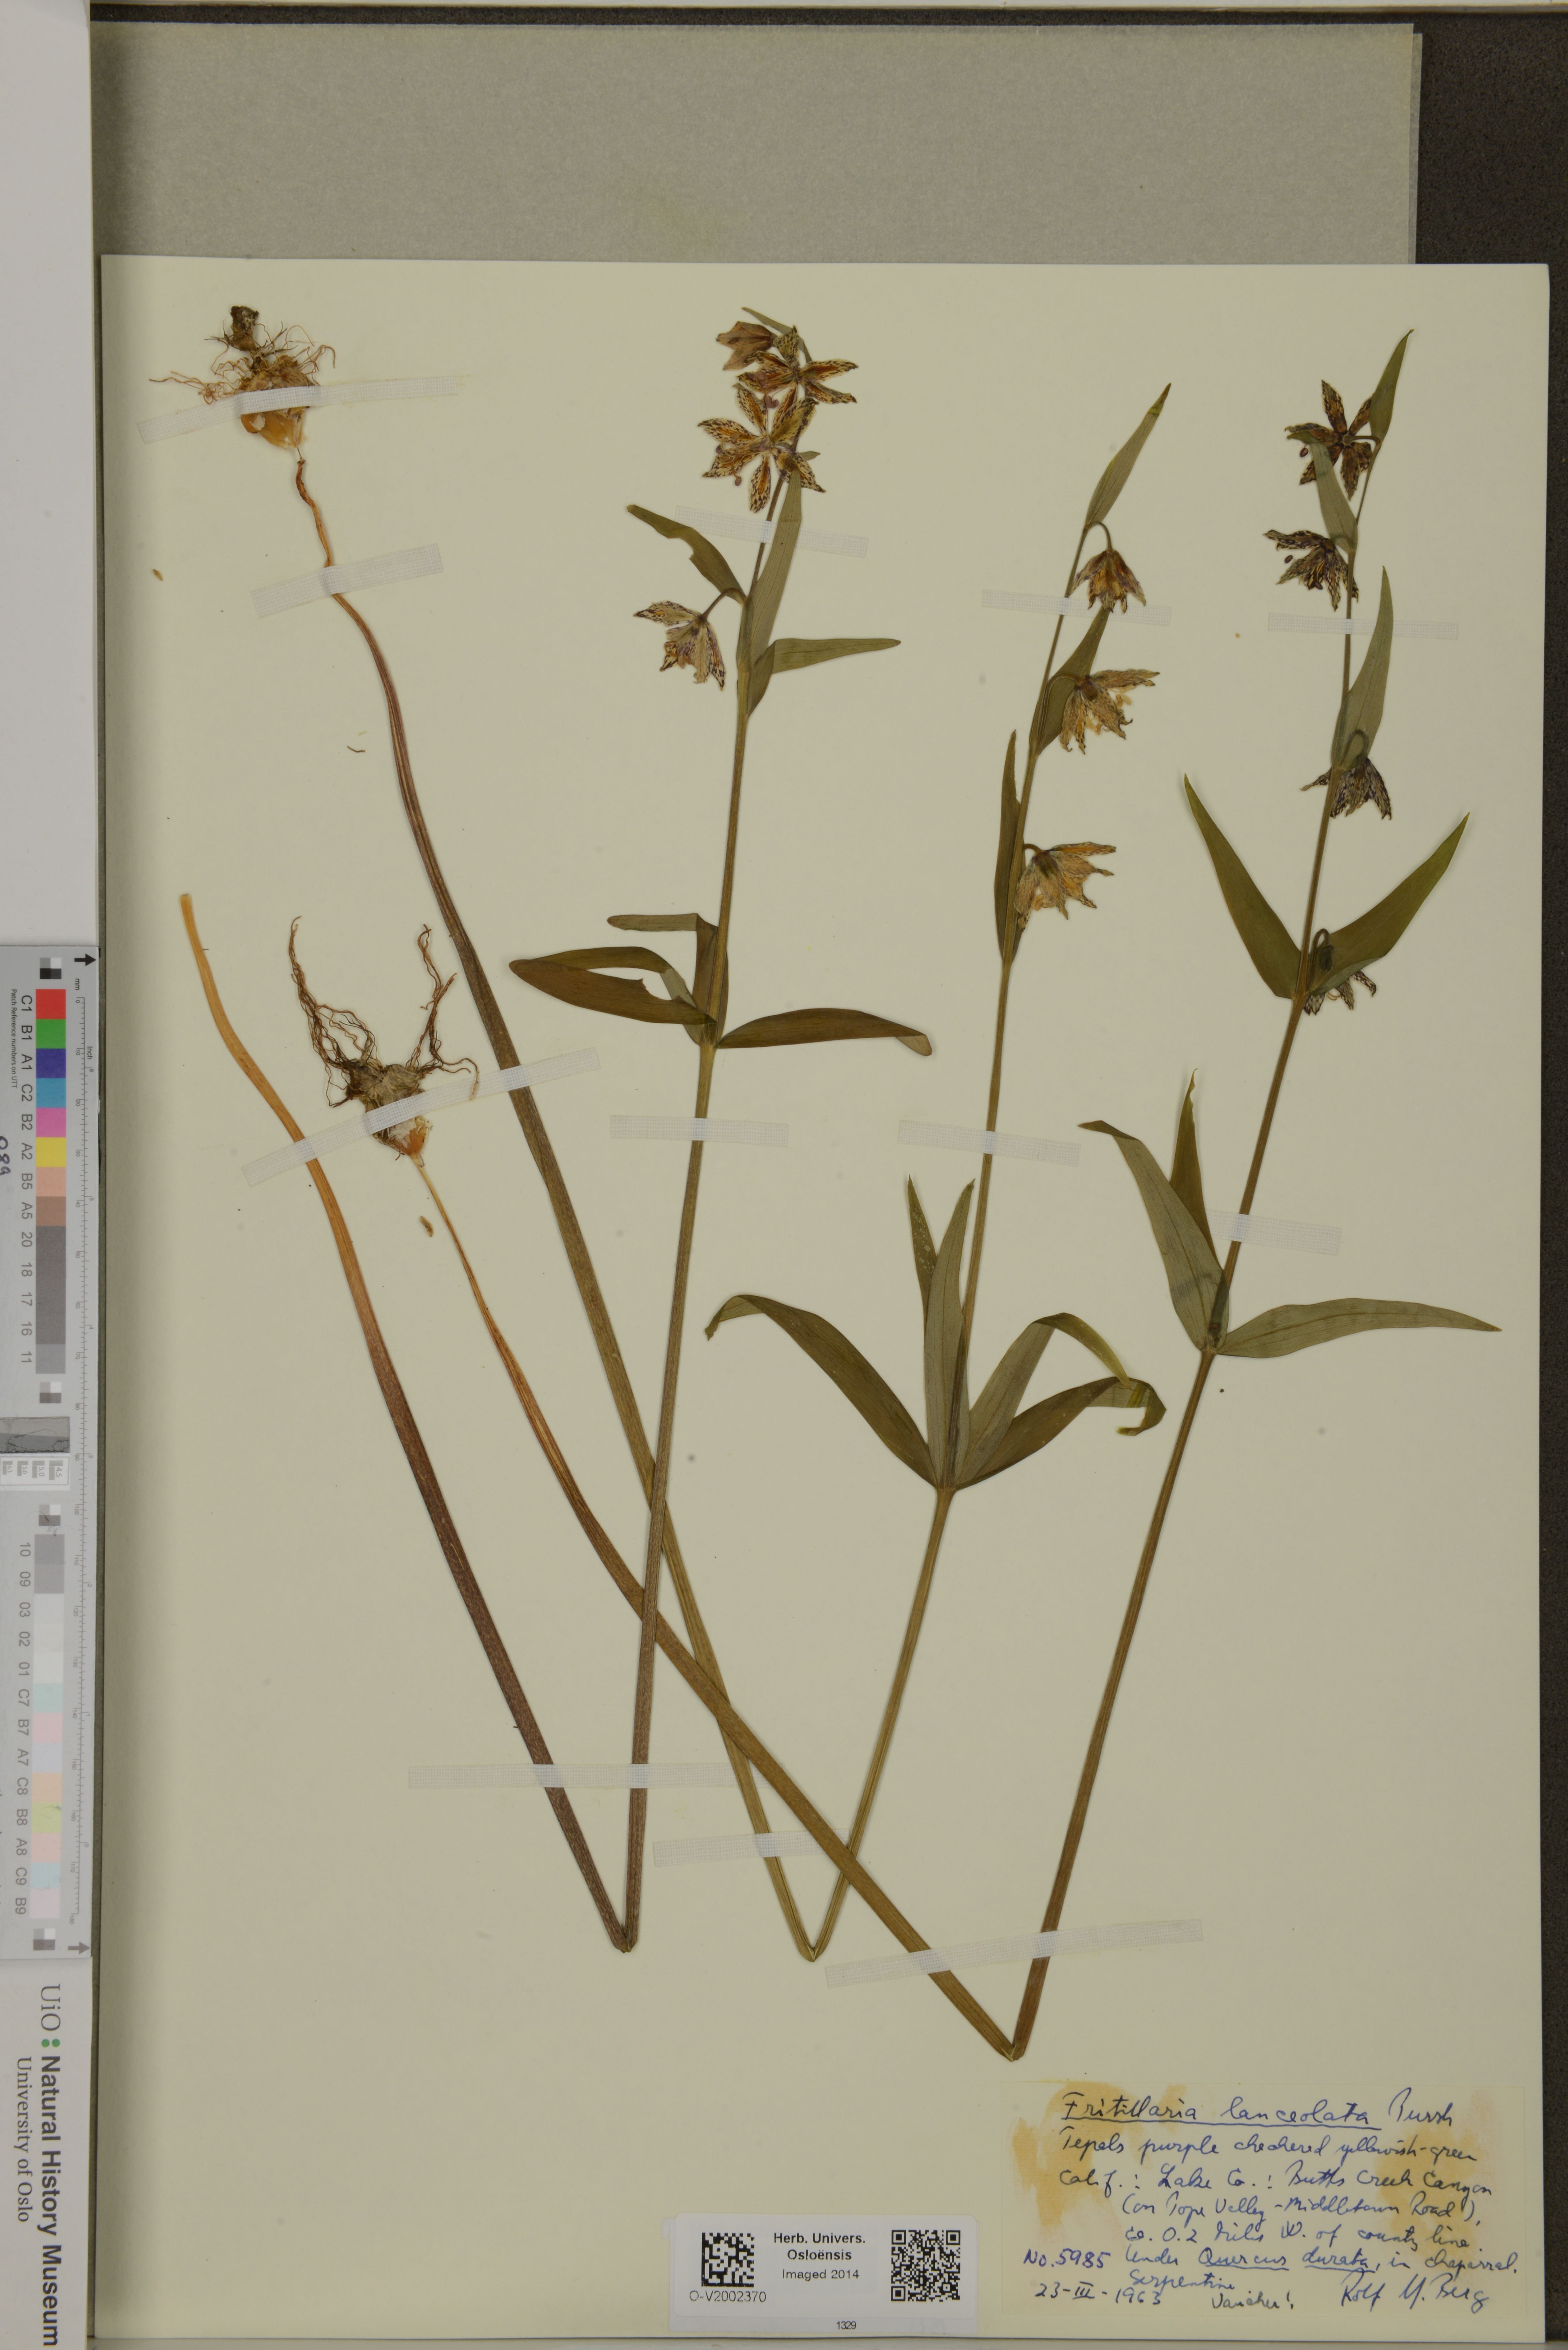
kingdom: Plantae
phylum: Tracheophyta
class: Liliopsida
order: Liliales
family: Liliaceae
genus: Fritillaria
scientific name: Fritillaria affinis
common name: Ojai fritillary
